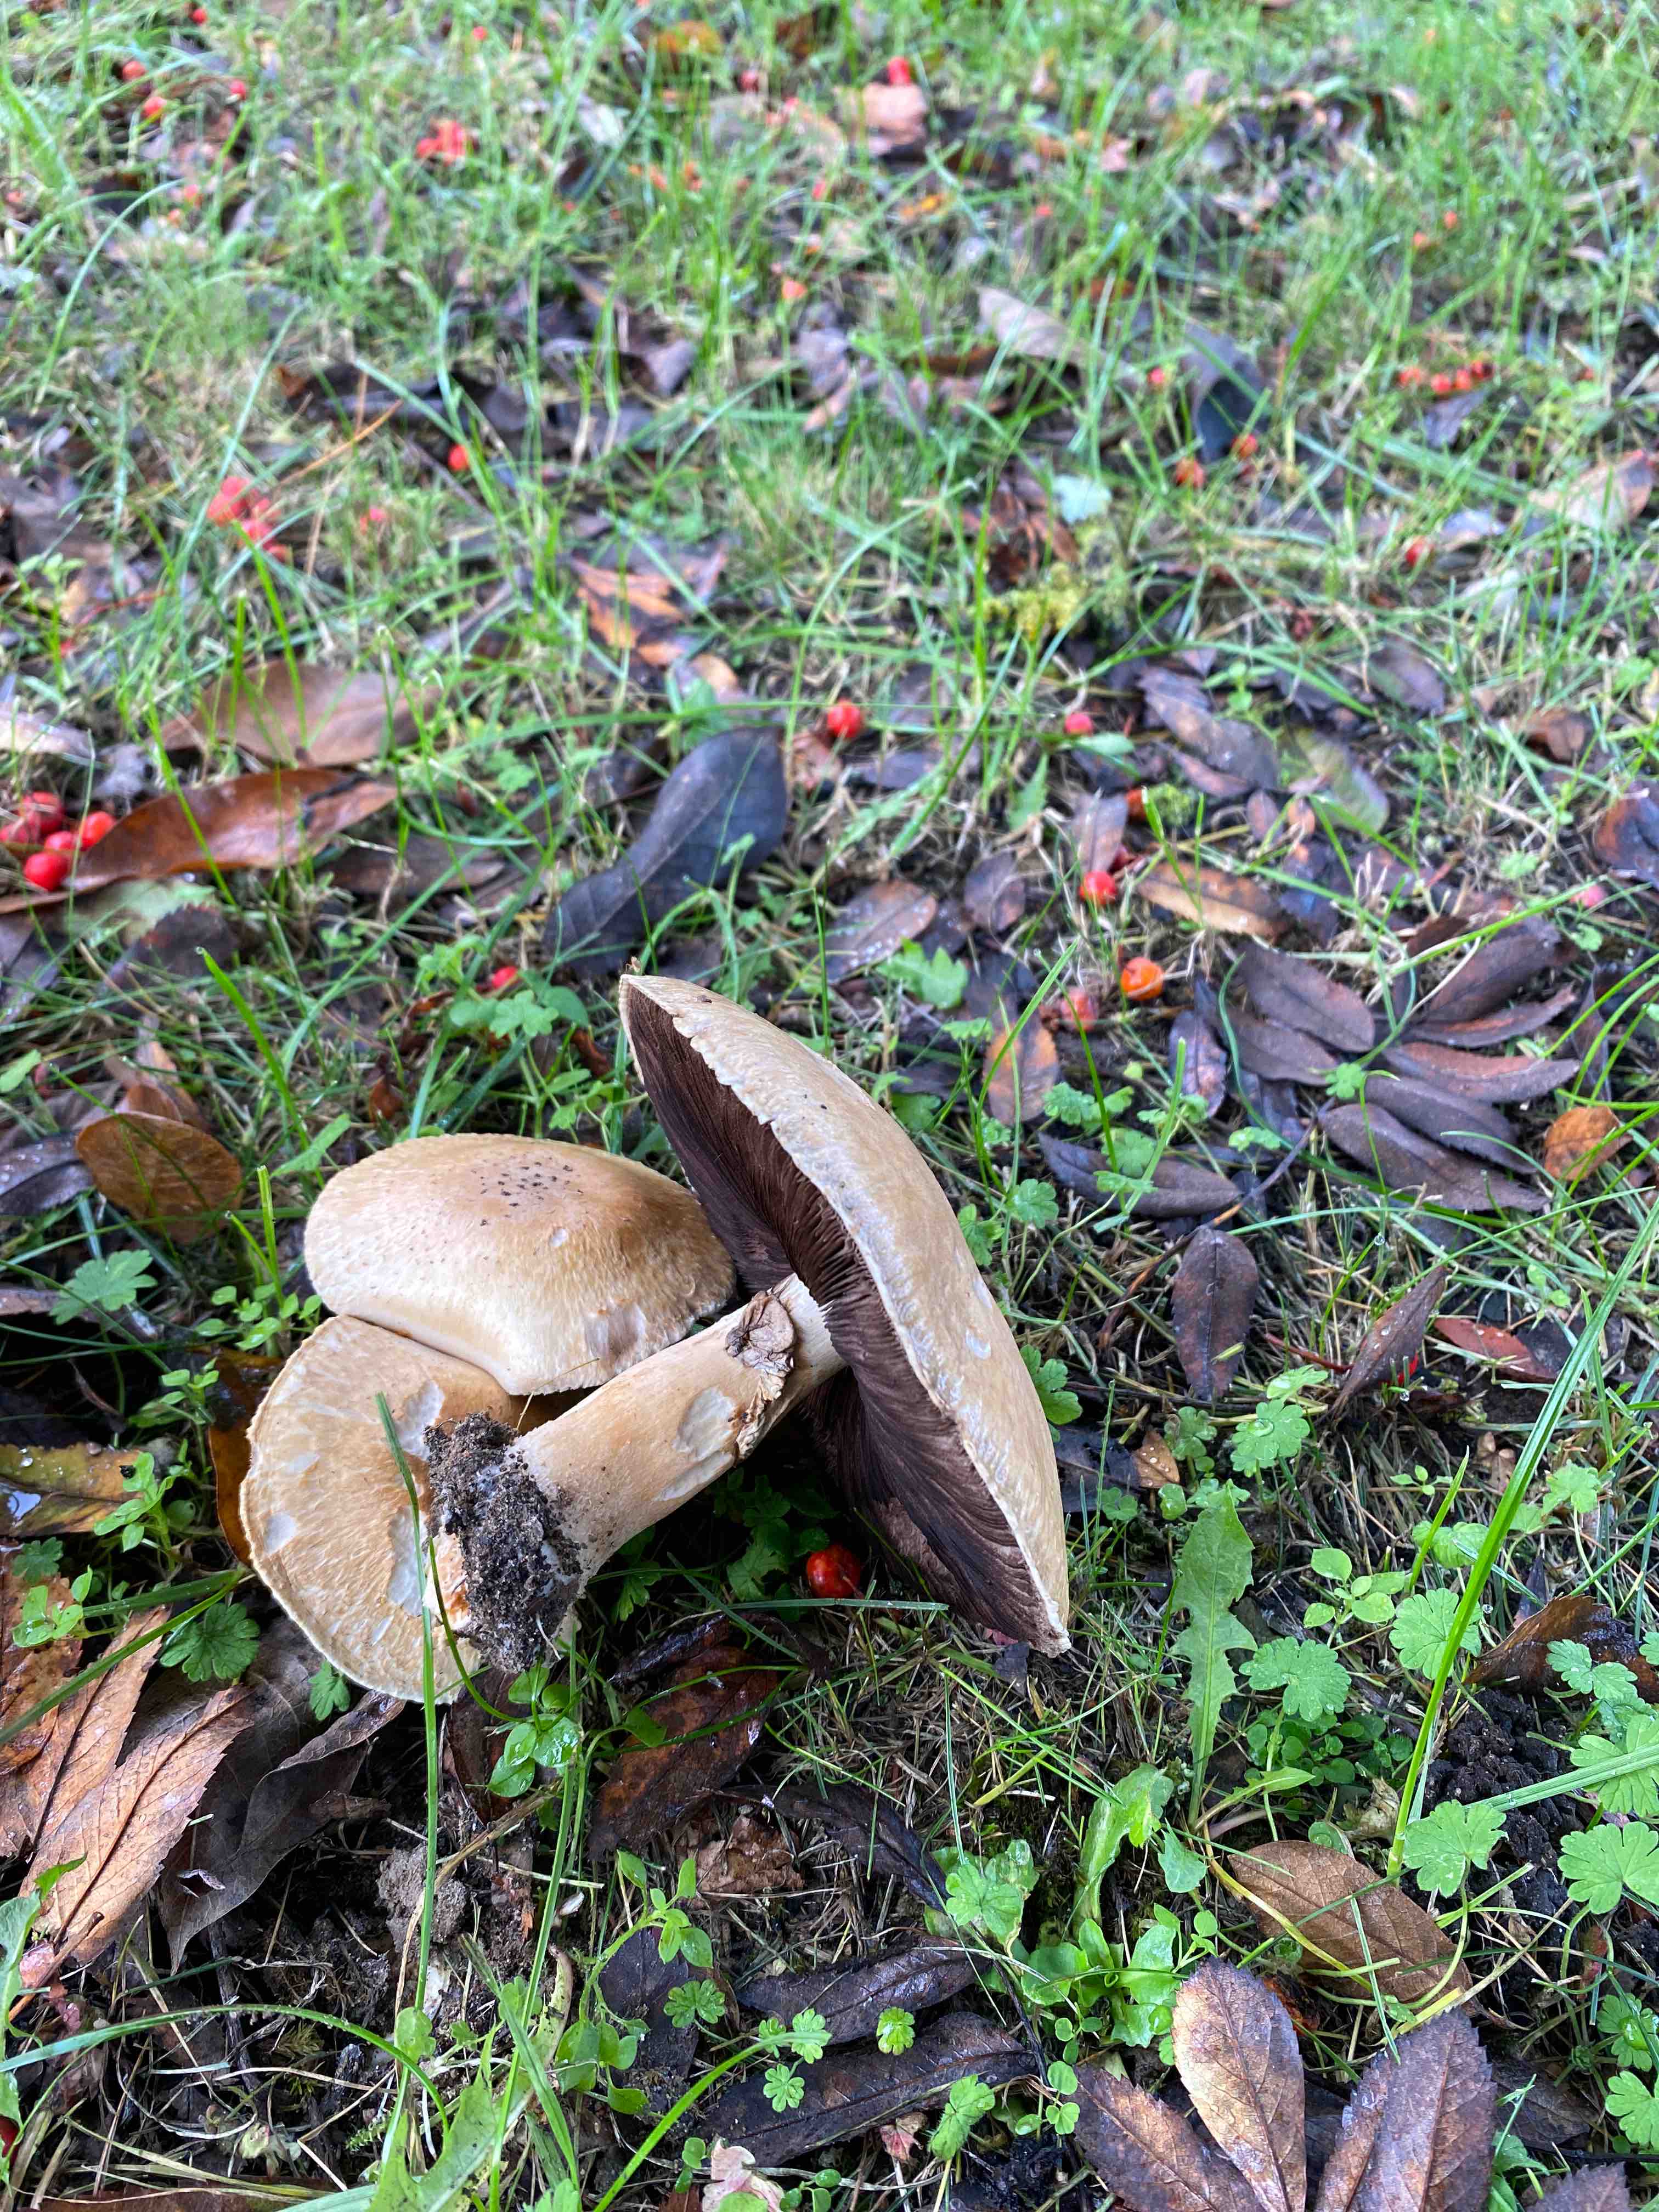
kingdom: Fungi
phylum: Basidiomycota
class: Agaricomycetes
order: Agaricales
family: Agaricaceae
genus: Agaricus
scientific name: Agaricus
